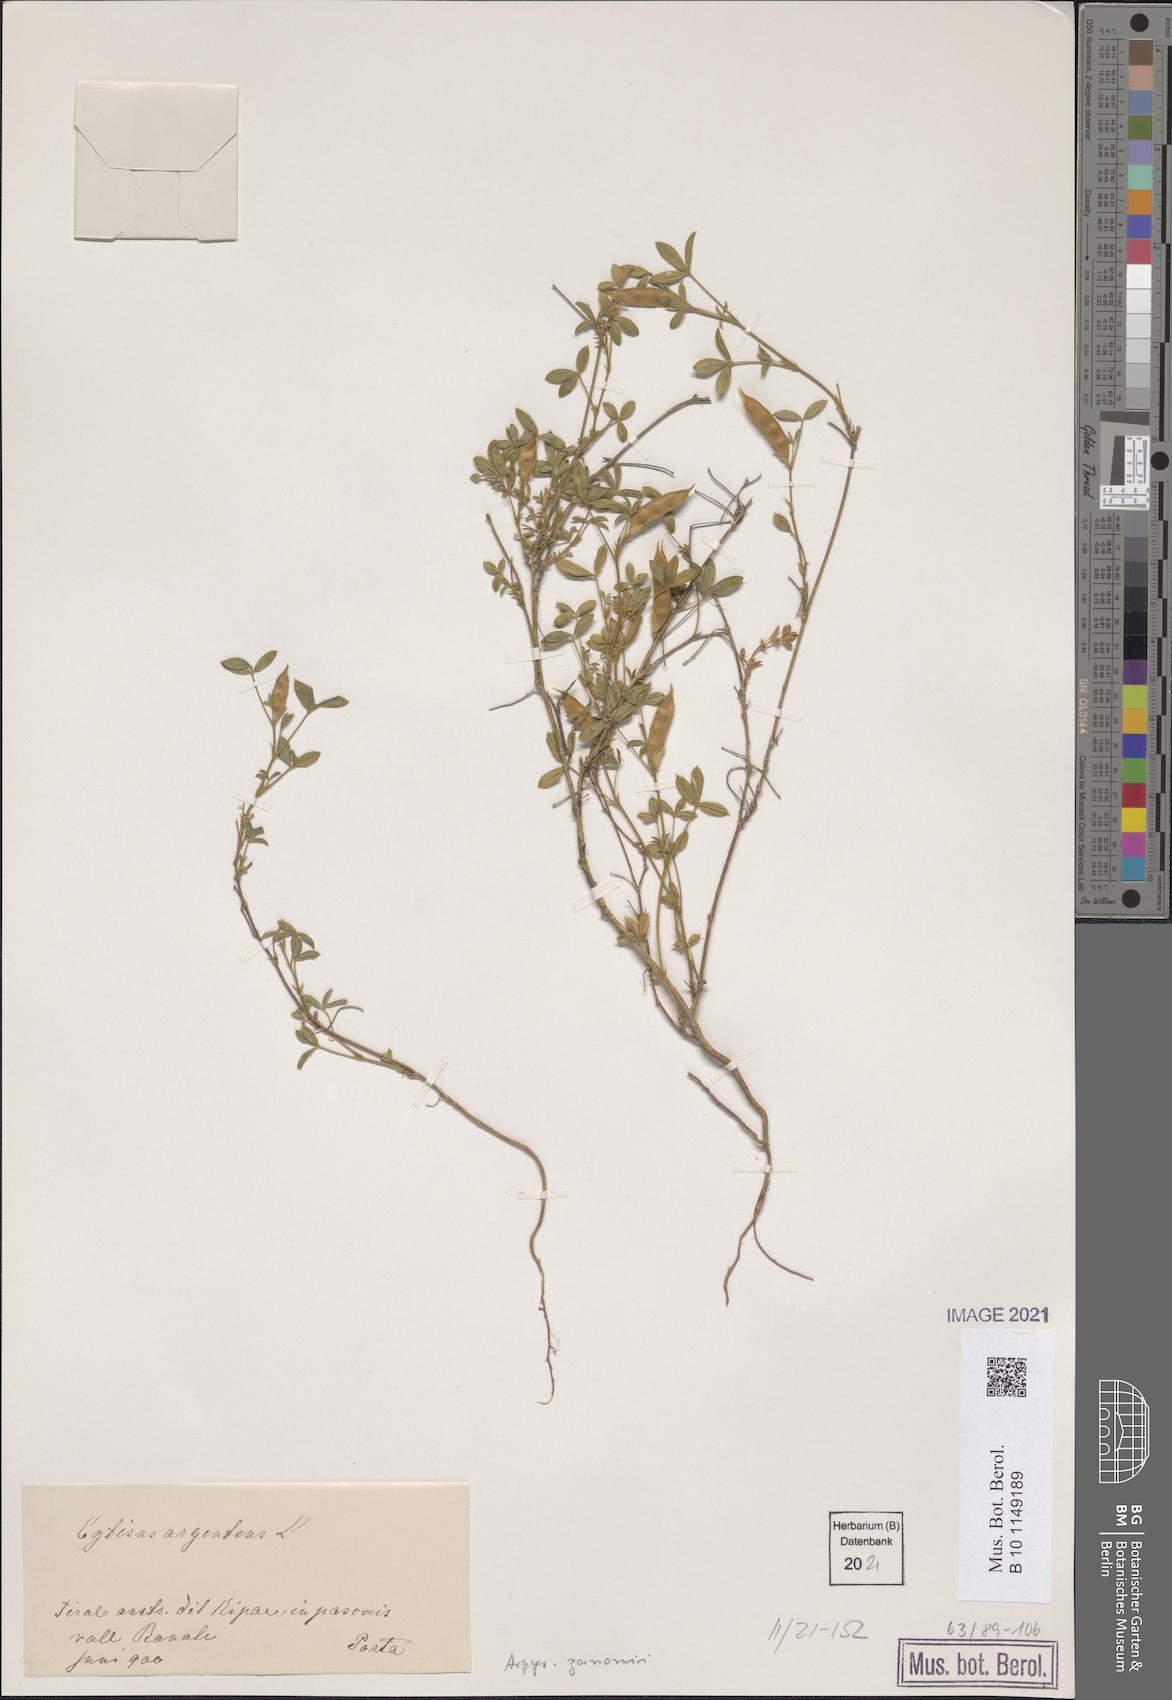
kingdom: Plantae
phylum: Tracheophyta
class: Magnoliopsida
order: Fabales
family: Fabaceae
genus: Argyrolobium
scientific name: Argyrolobium zanonii
